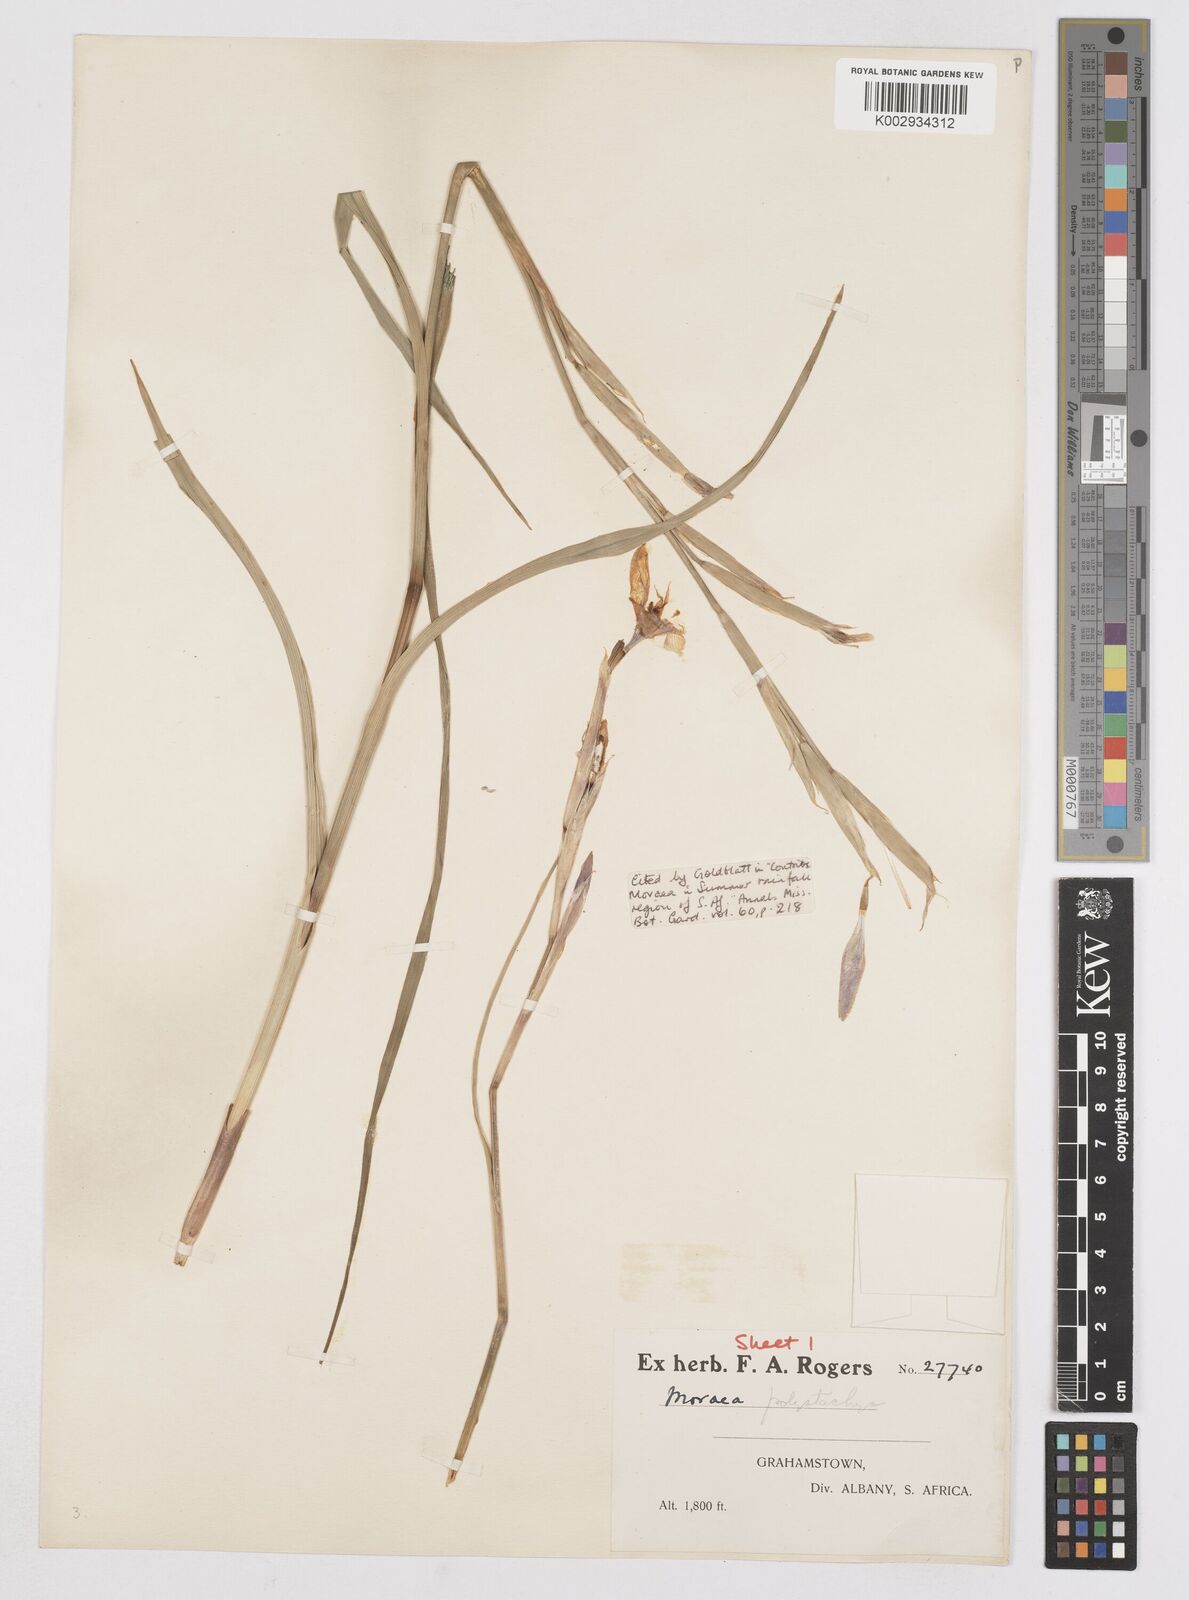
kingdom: Plantae
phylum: Tracheophyta
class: Liliopsida
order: Asparagales
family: Iridaceae
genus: Moraea
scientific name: Moraea polystachya
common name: Blue-tulip
